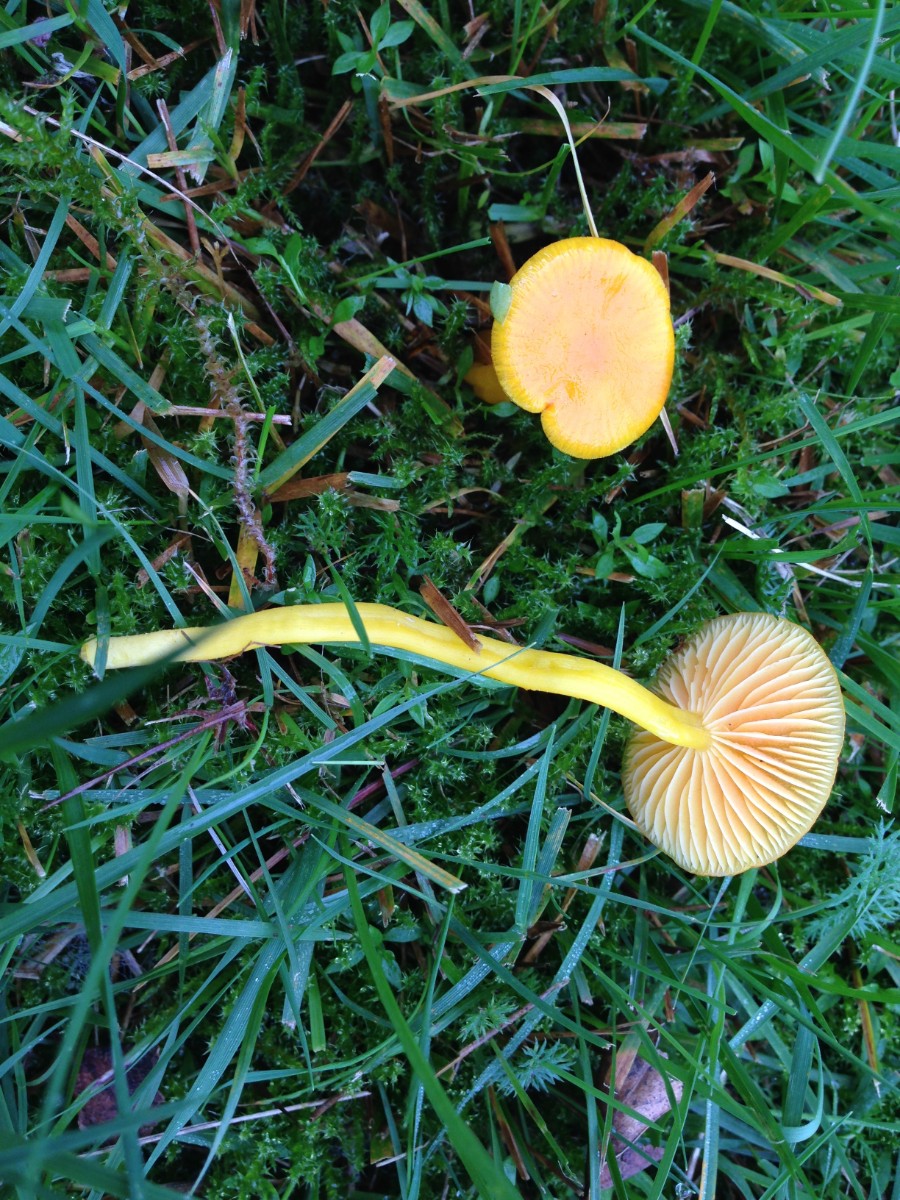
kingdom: Fungi
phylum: Basidiomycota
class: Agaricomycetes
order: Agaricales
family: Hygrophoraceae
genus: Hygrocybe
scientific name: Hygrocybe ceracea
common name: voksgul vokshat
